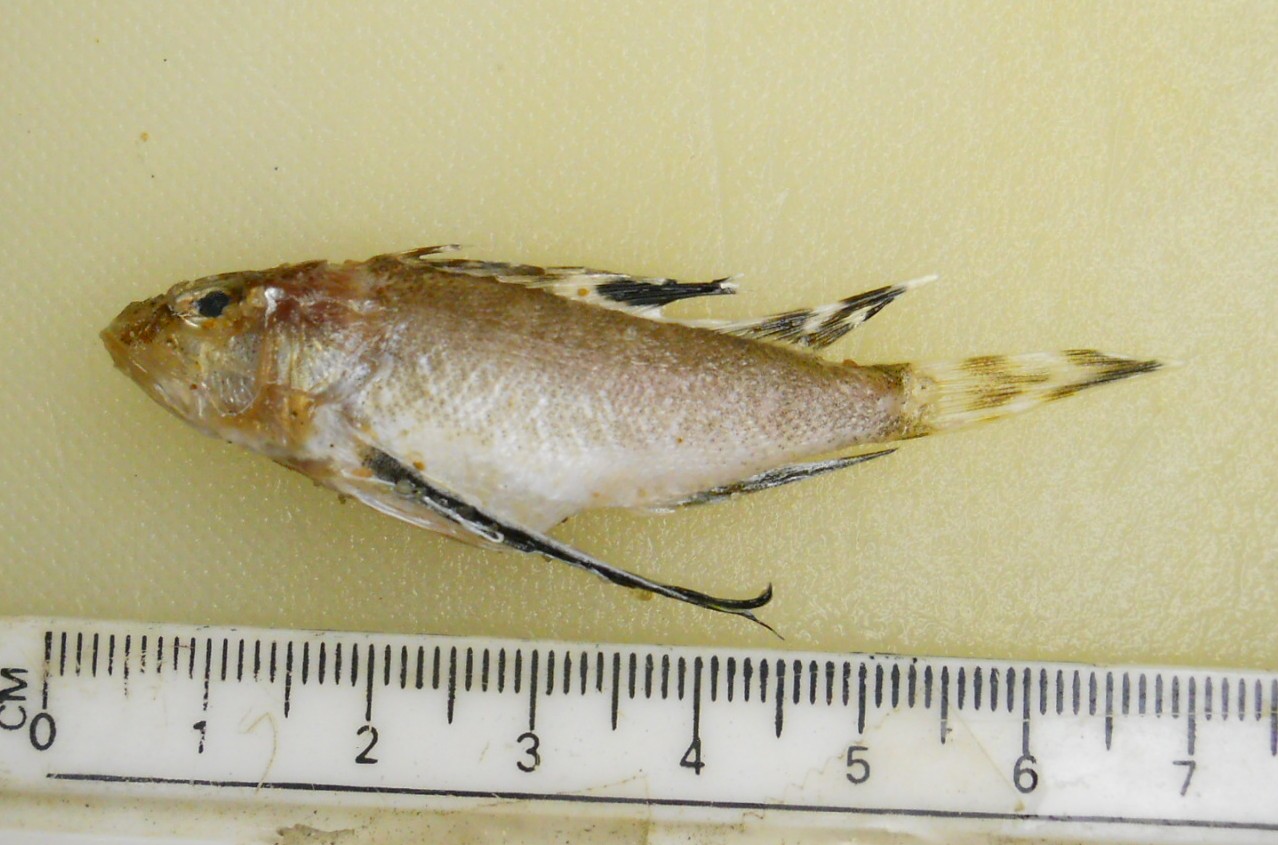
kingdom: Animalia
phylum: Chordata
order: Scorpaeniformes
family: Apistidae
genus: Apistus
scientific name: Apistus carinatus
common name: Ocellated waspfish
